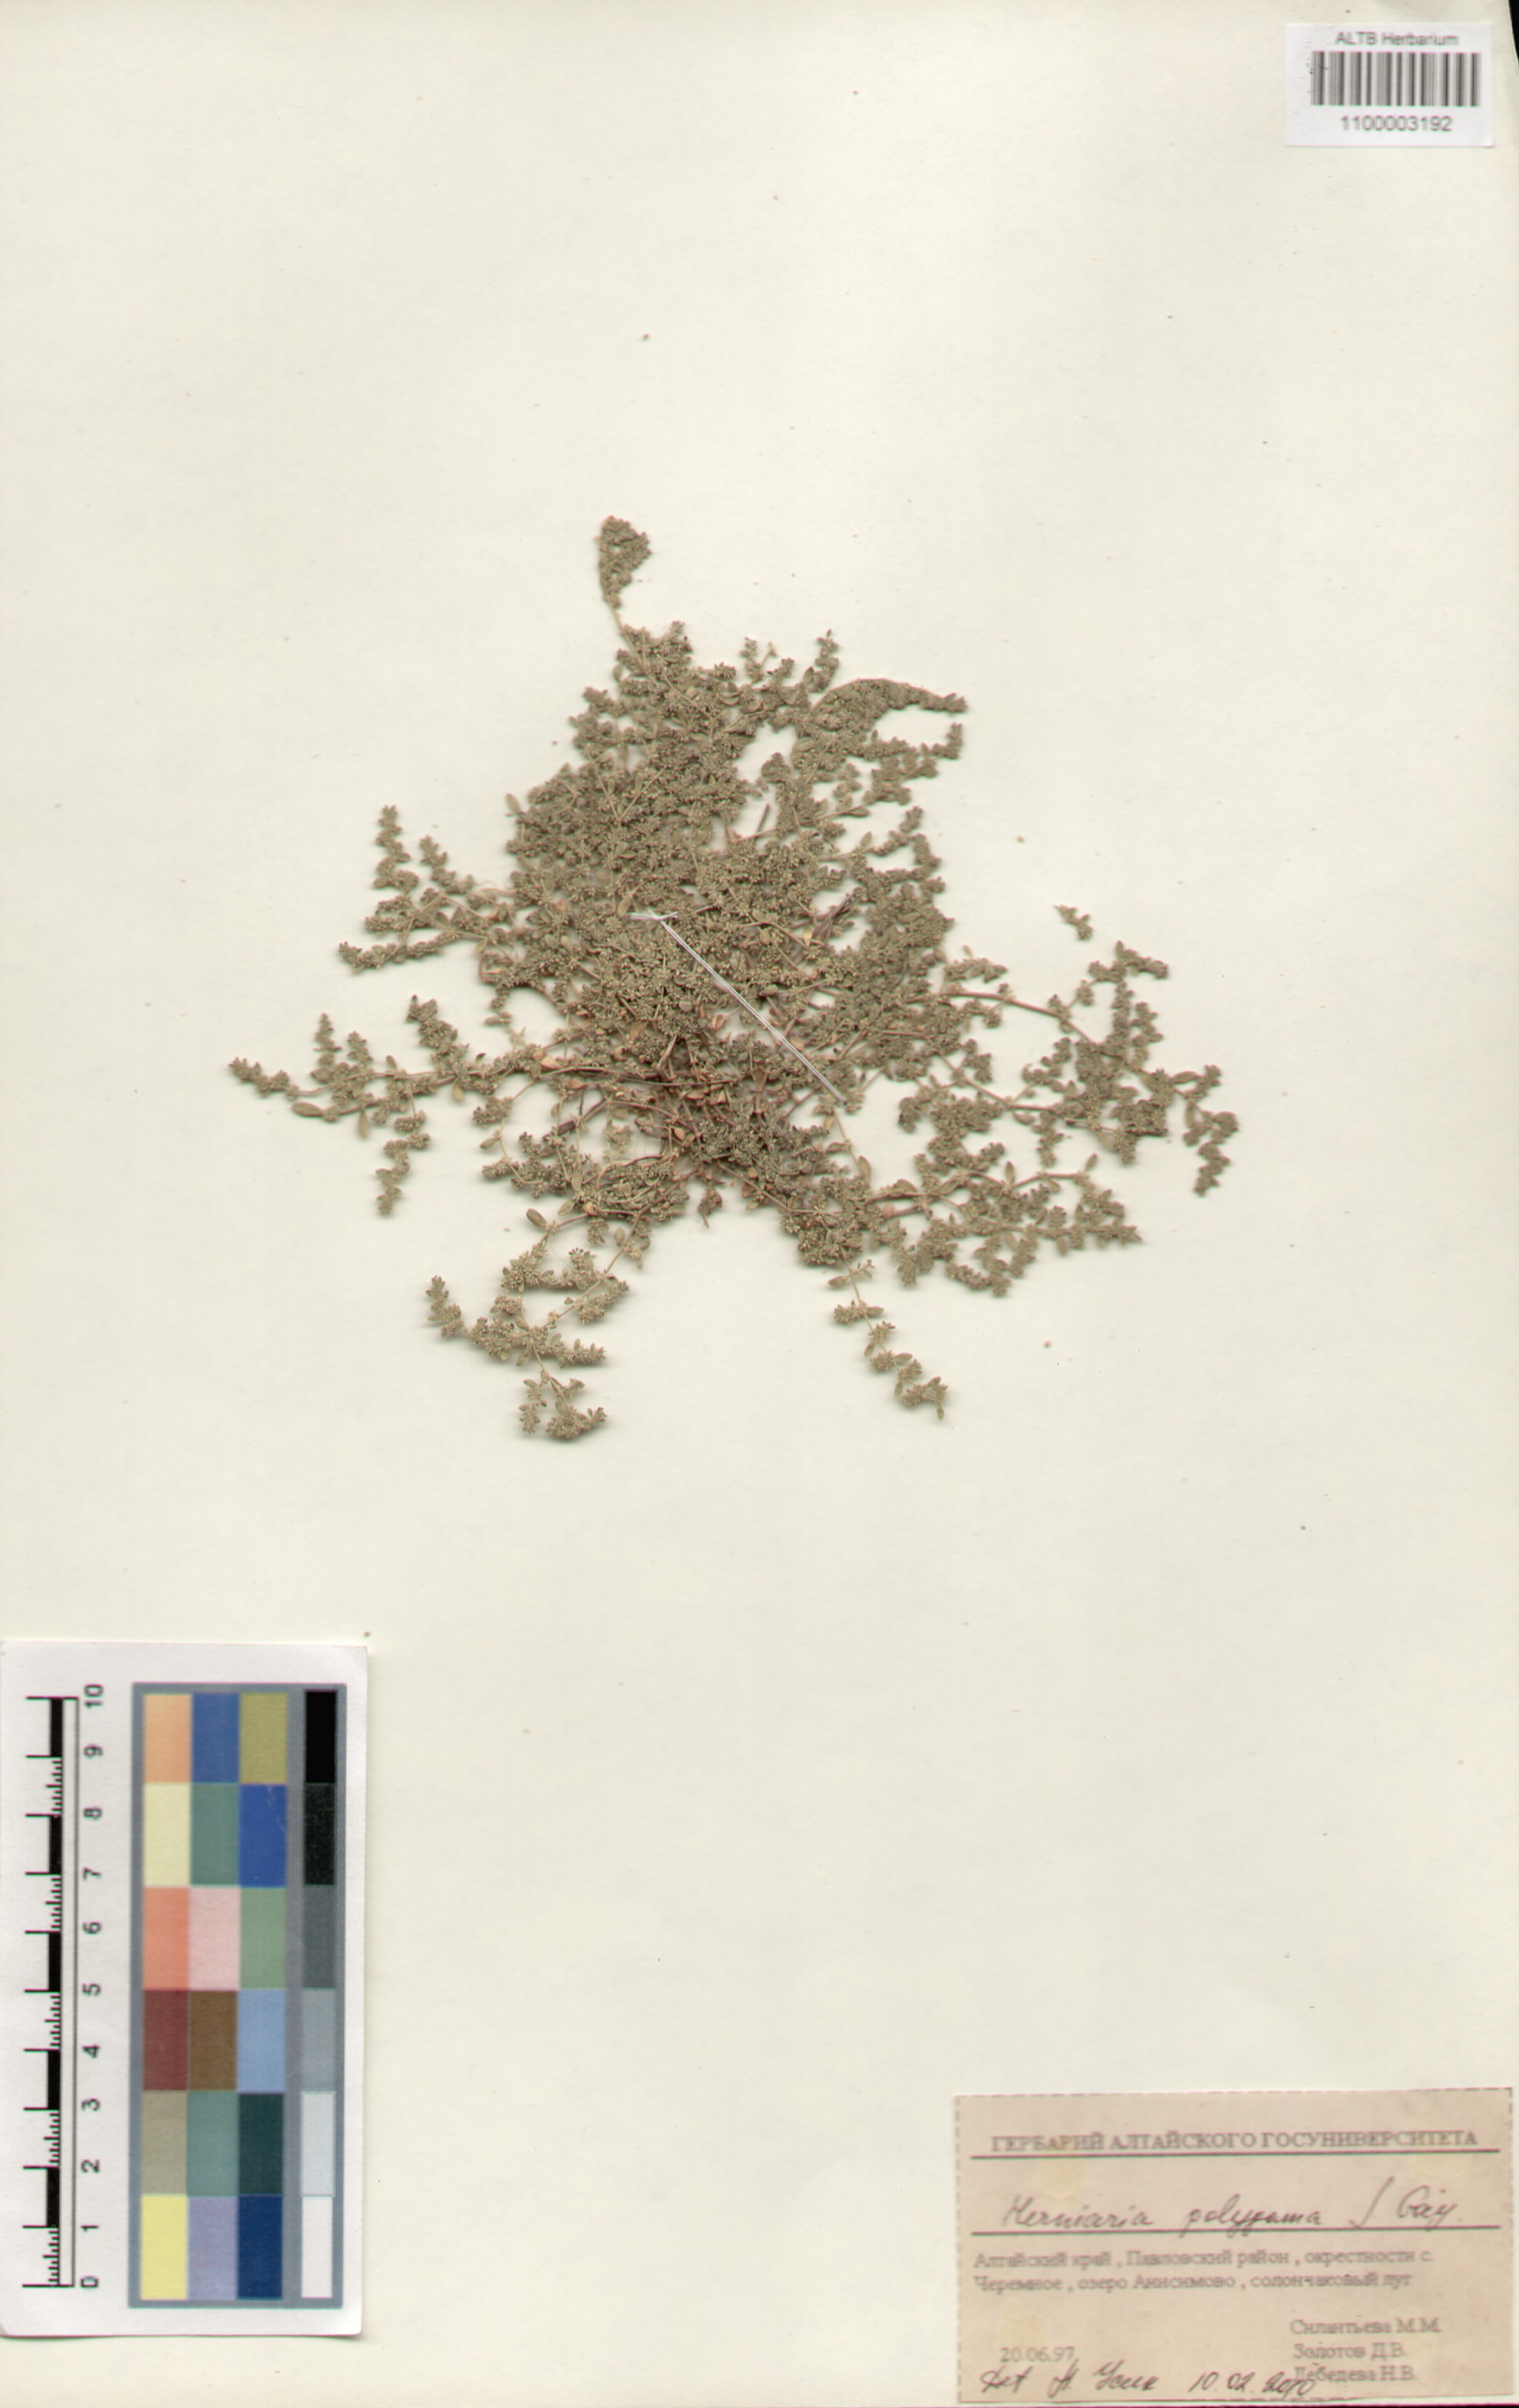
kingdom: Plantae
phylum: Tracheophyta
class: Magnoliopsida
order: Caryophyllales
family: Caryophyllaceae
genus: Herniaria
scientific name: Herniaria polygama
